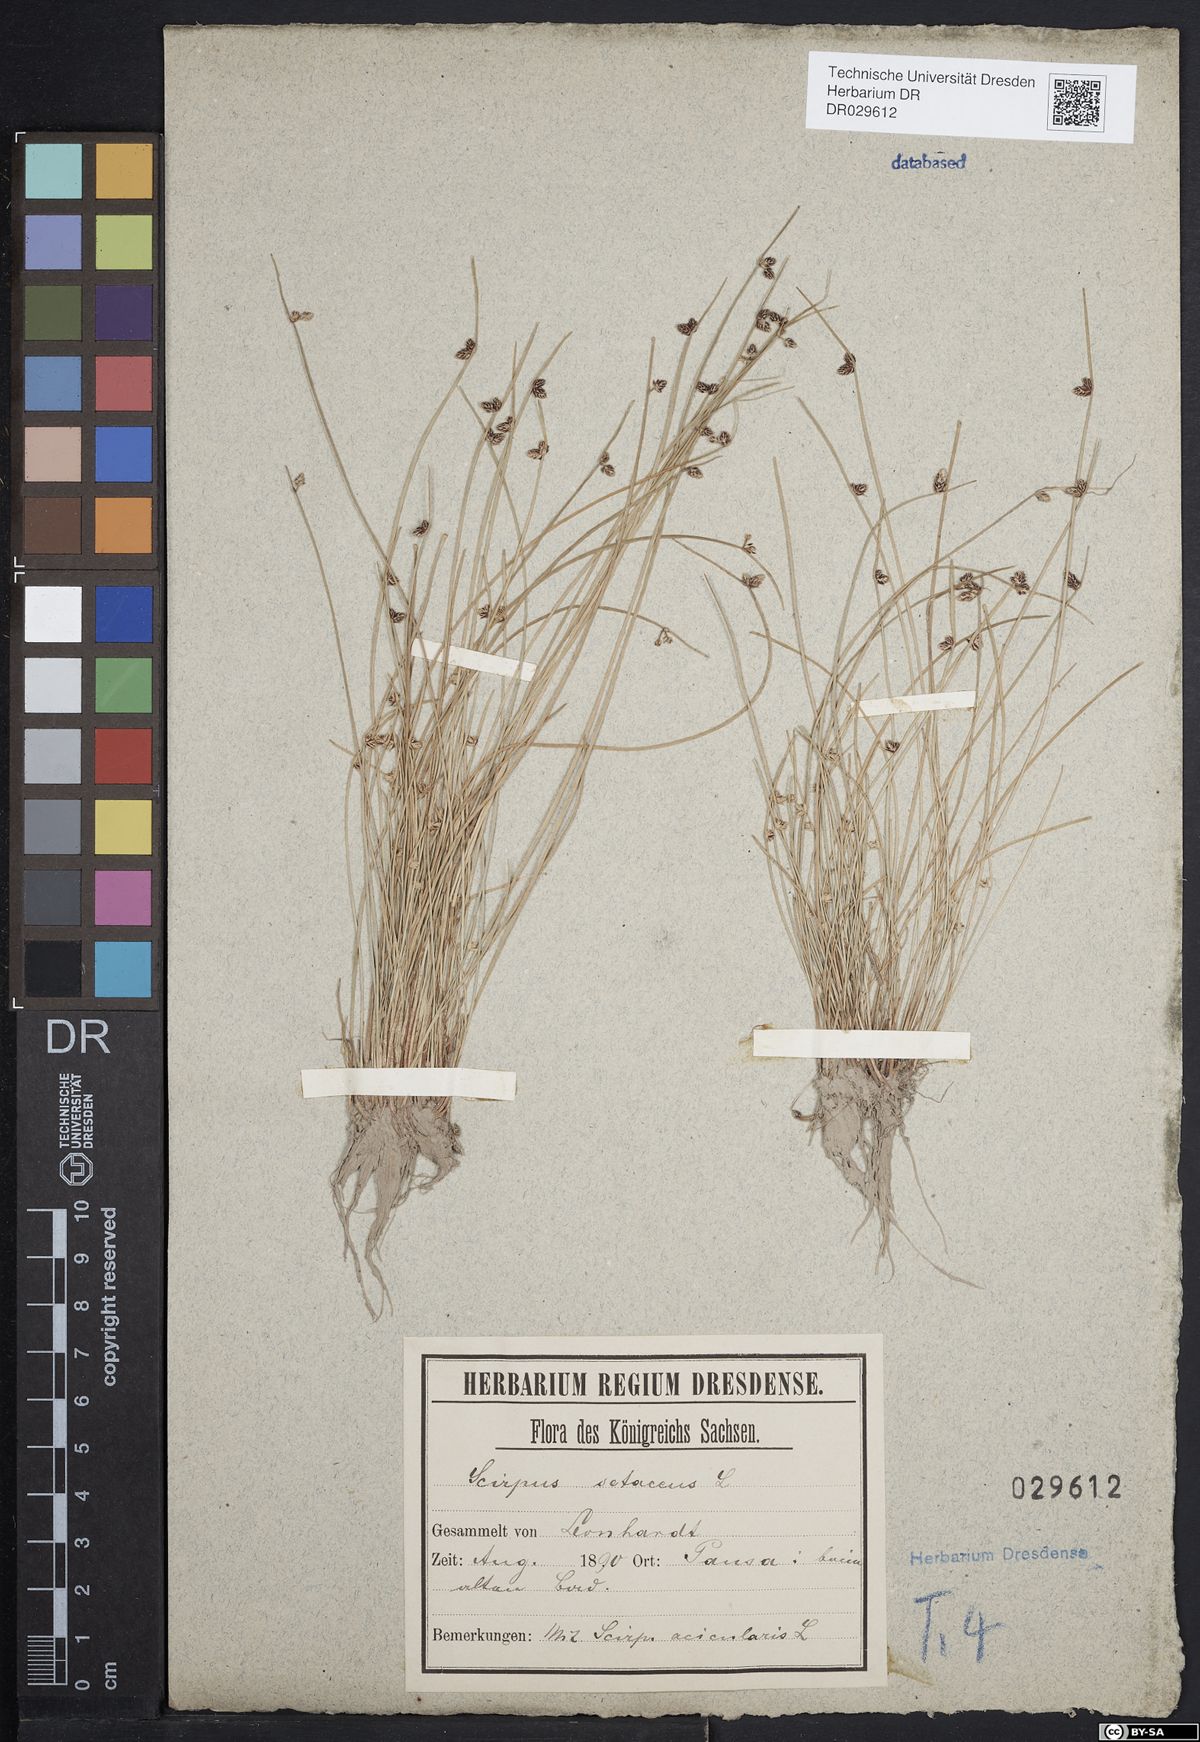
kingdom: Plantae
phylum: Tracheophyta
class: Liliopsida
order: Poales
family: Cyperaceae
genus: Isolepis
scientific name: Isolepis setacea
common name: Bristle club-rush
